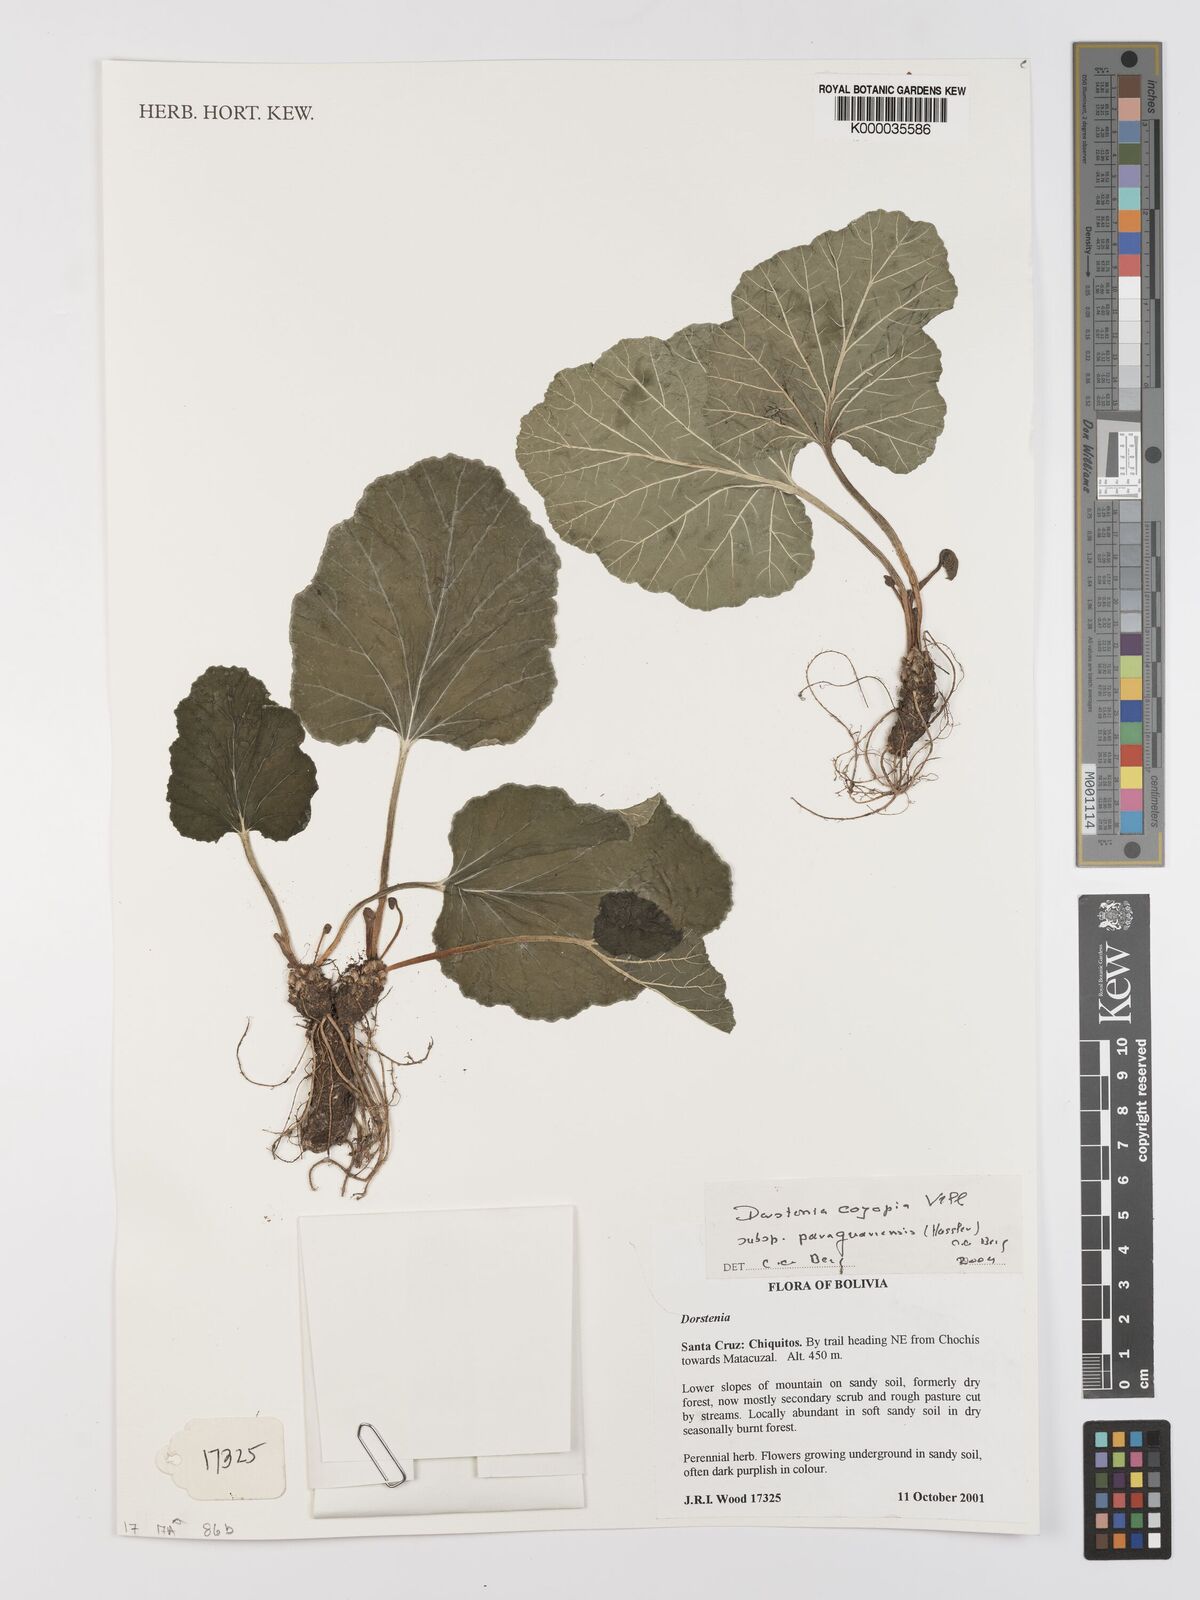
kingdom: Plantae
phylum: Tracheophyta
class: Magnoliopsida
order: Rosales
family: Moraceae
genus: Dorstenia
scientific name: Dorstenia cayapia
